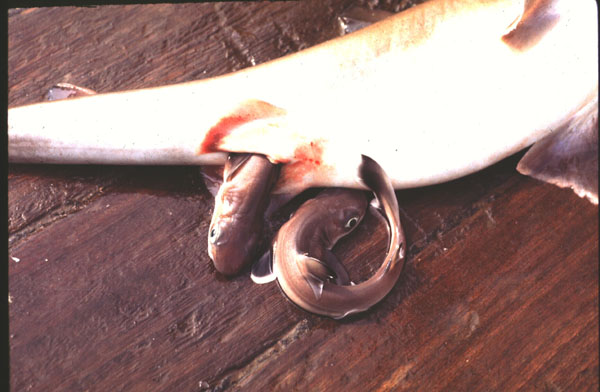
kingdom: Animalia
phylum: Chordata
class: Elasmobranchii
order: Squaliformes
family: Squalidae
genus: Squalus
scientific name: Squalus megalops
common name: Shortnose spurdog
